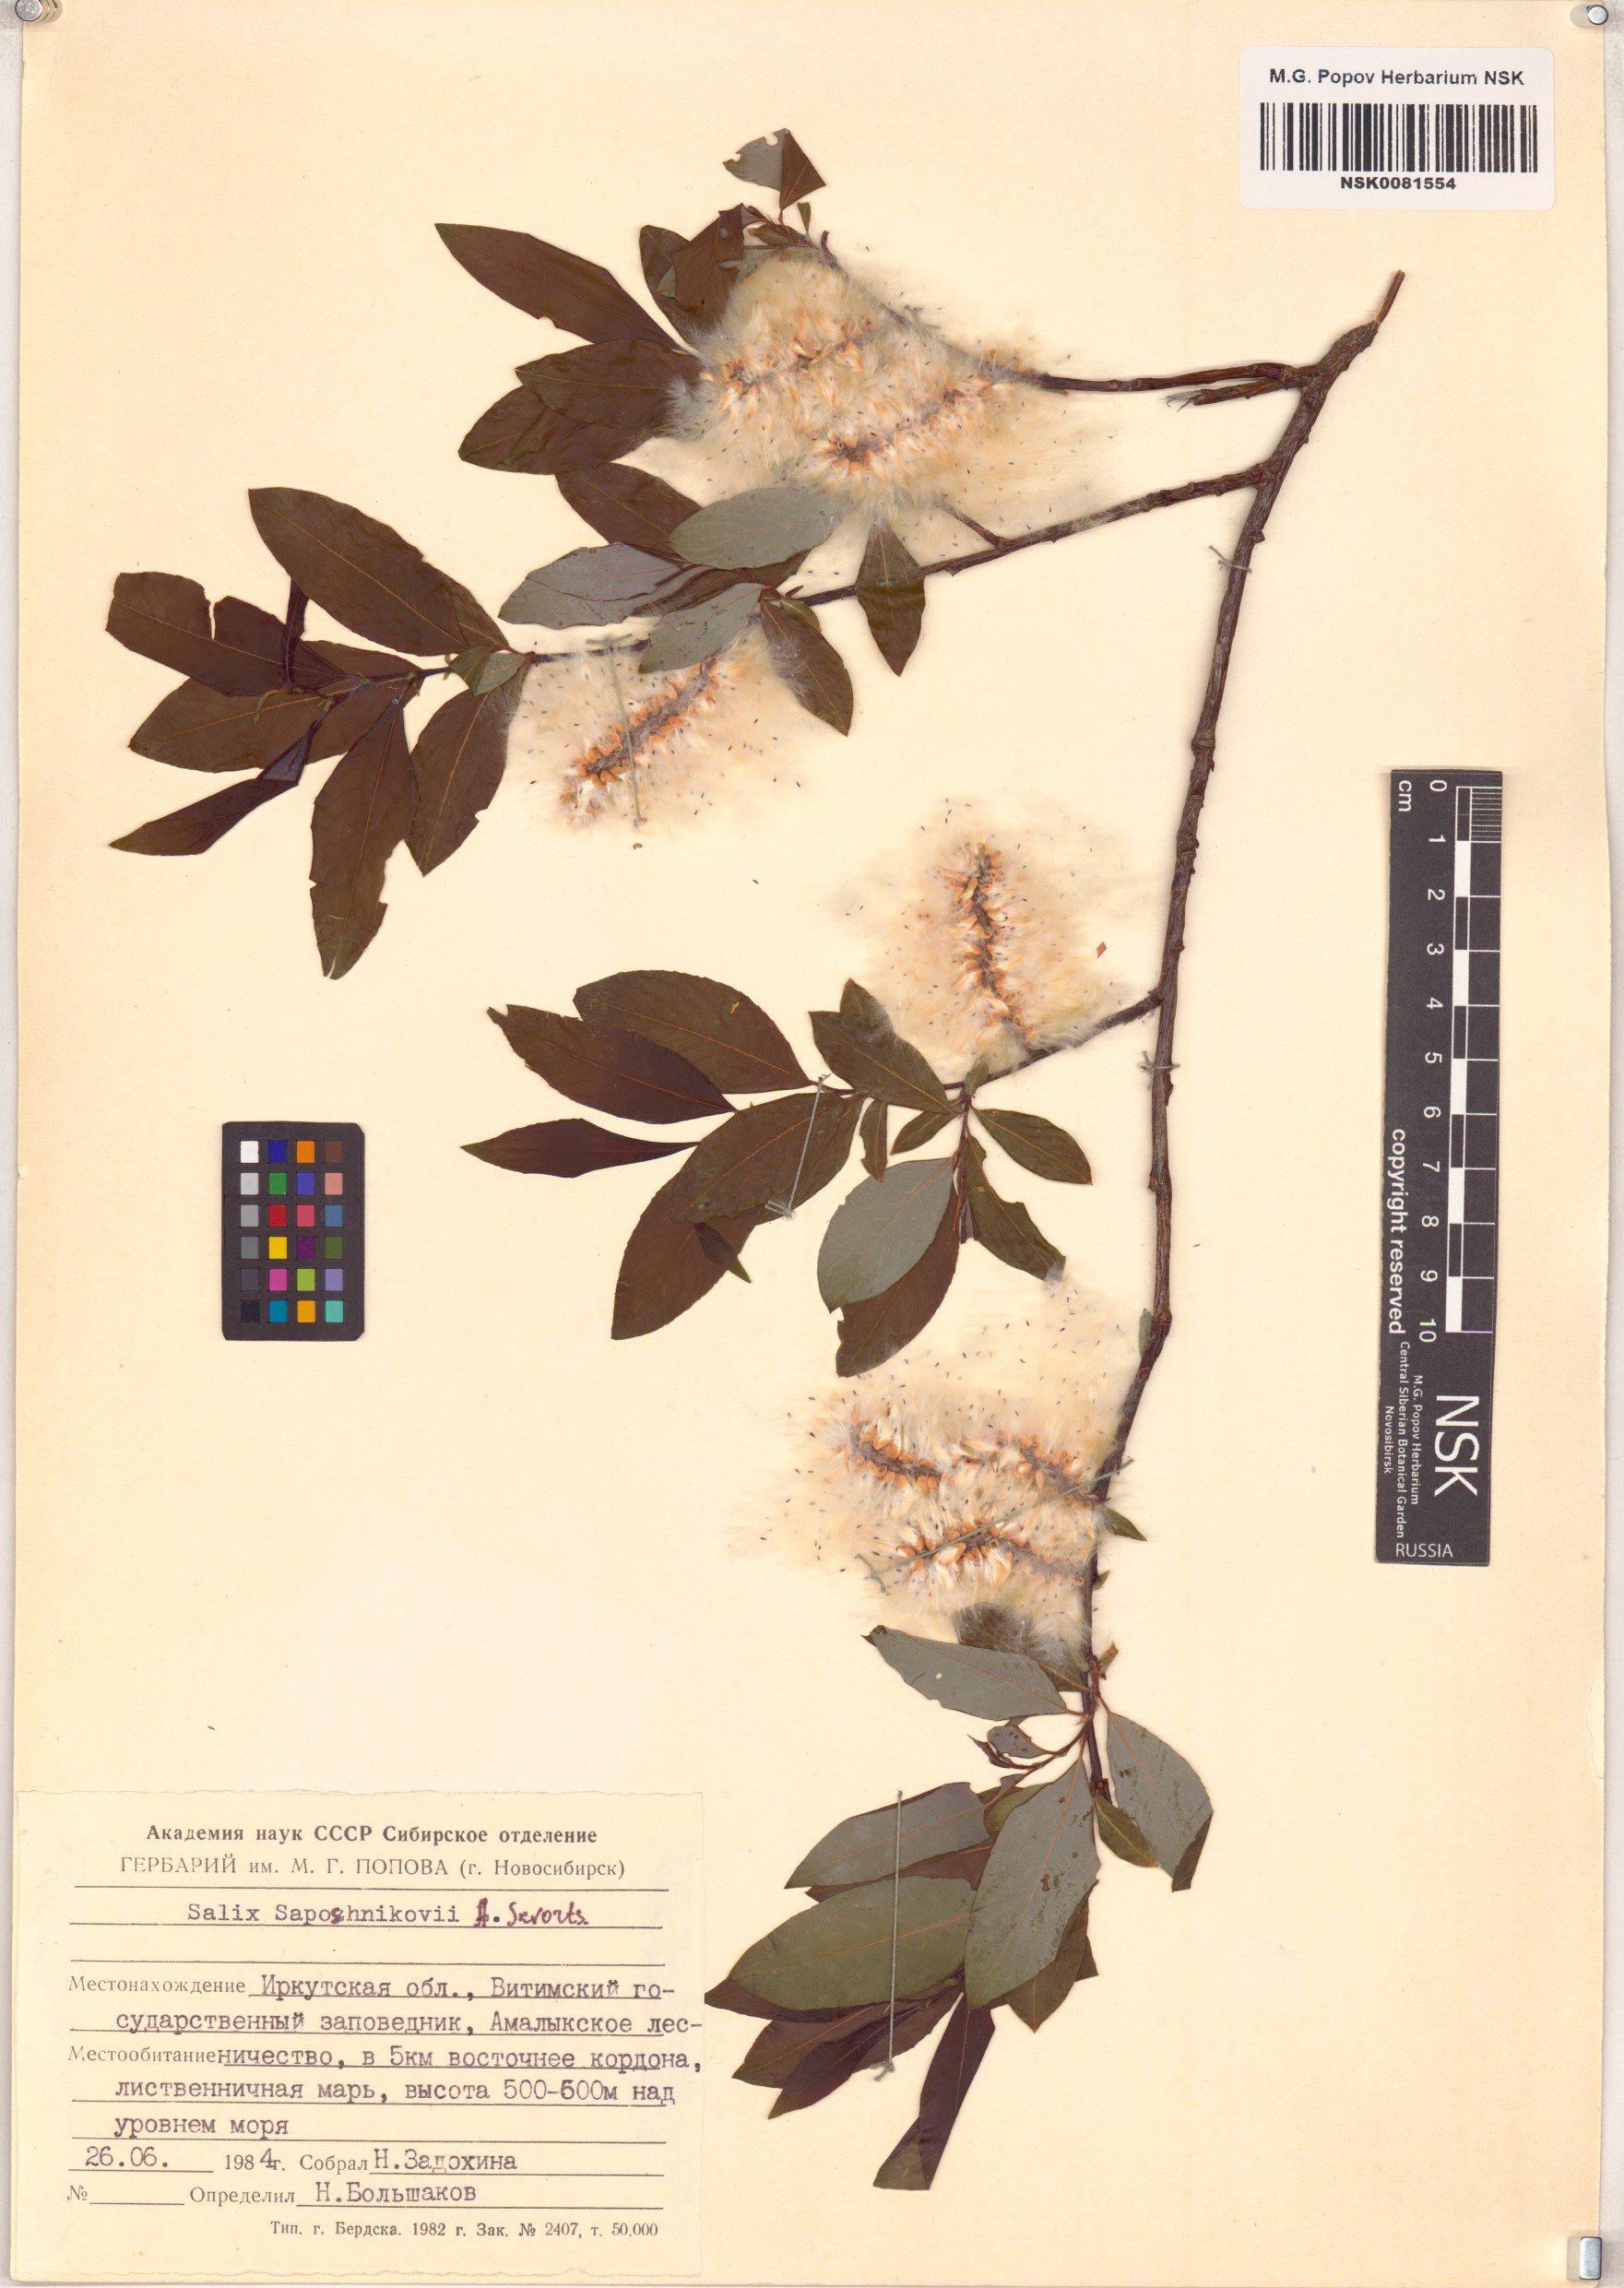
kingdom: Plantae
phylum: Tracheophyta
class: Magnoliopsida
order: Malpighiales
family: Salicaceae
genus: Salix
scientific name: Salix saposhnikovii
